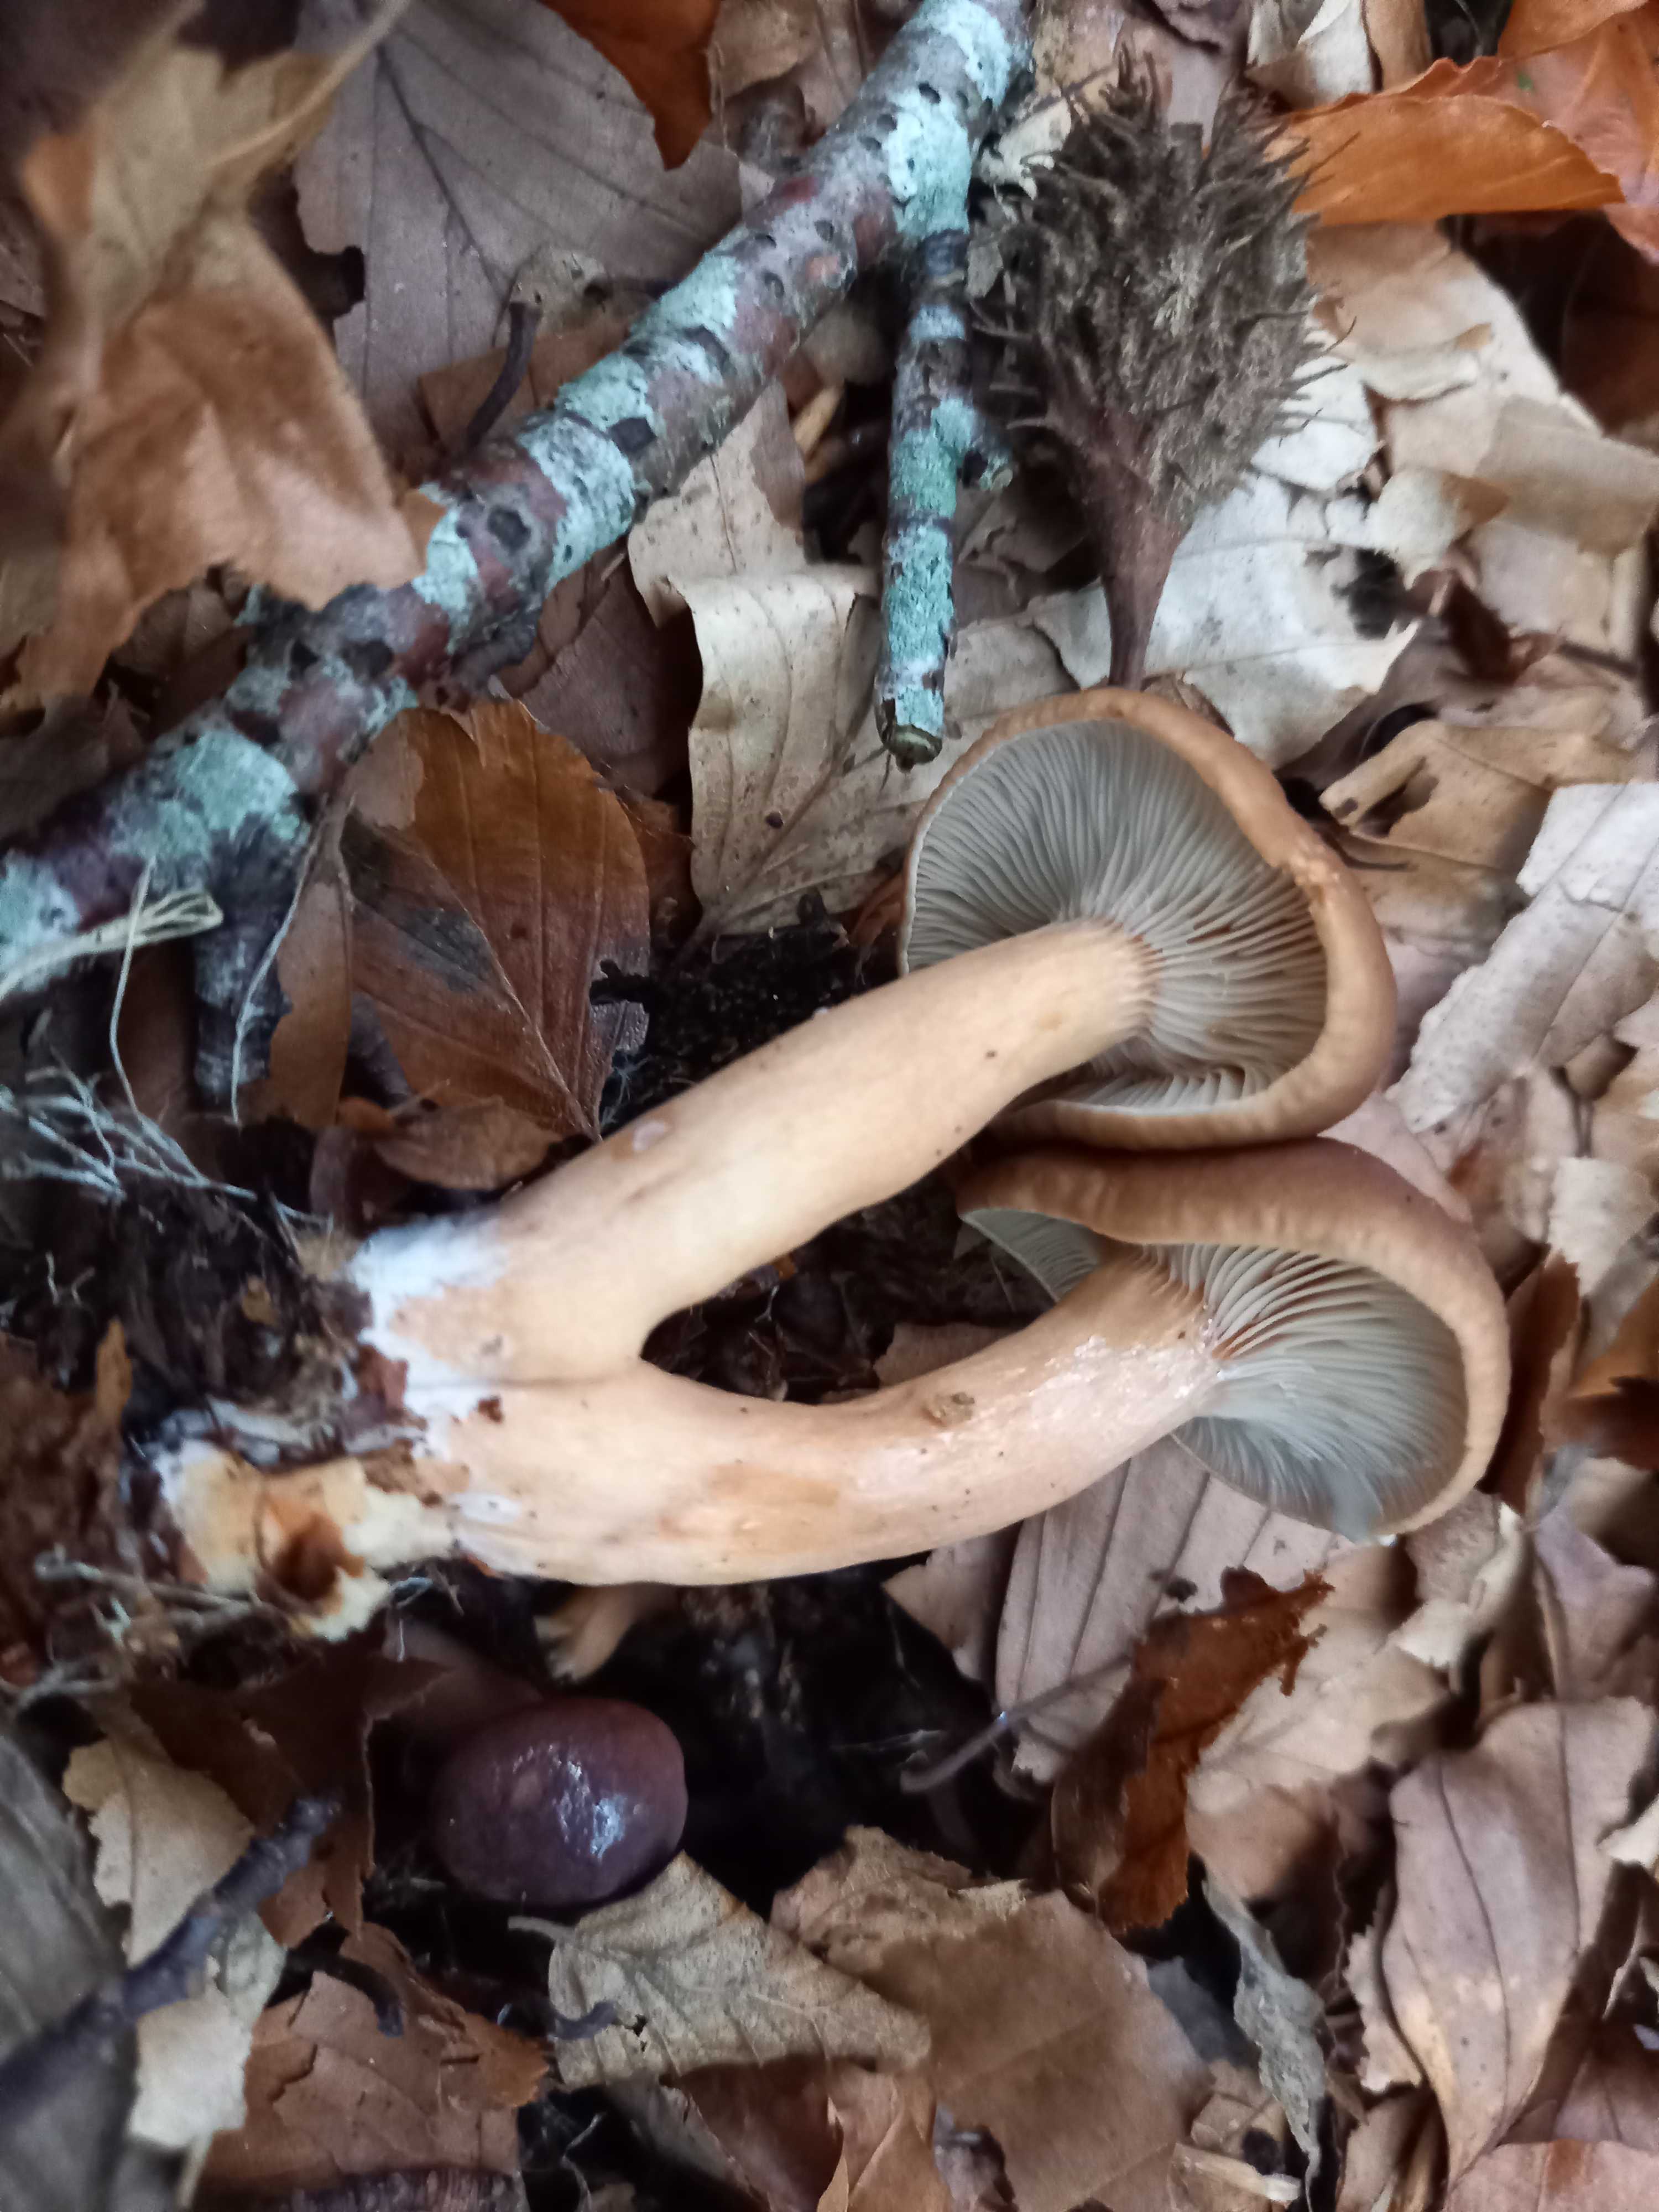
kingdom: Fungi
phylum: Basidiomycota
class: Agaricomycetes
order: Russulales
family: Russulaceae
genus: Lactarius
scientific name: Lactarius subdulcis
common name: sødlig mælkehat
